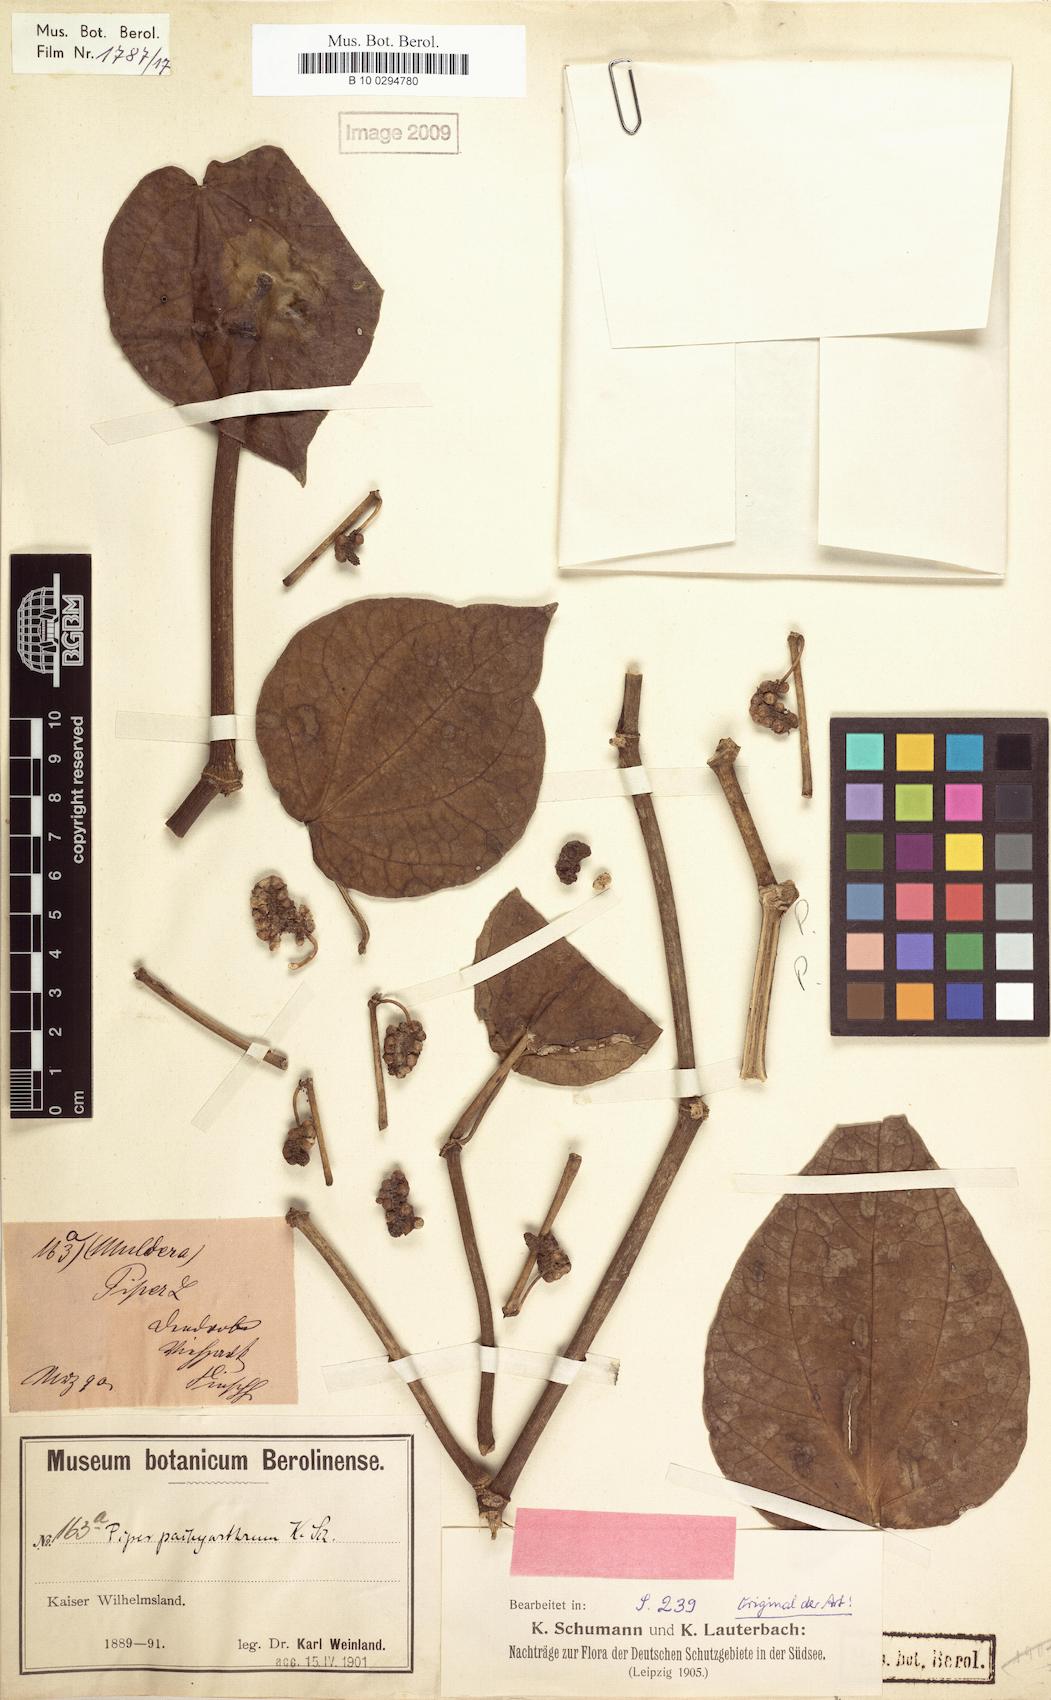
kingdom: Plantae
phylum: Tracheophyta
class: Magnoliopsida
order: Piperales
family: Piperaceae
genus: Piper
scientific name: Piper pachyarthrum
